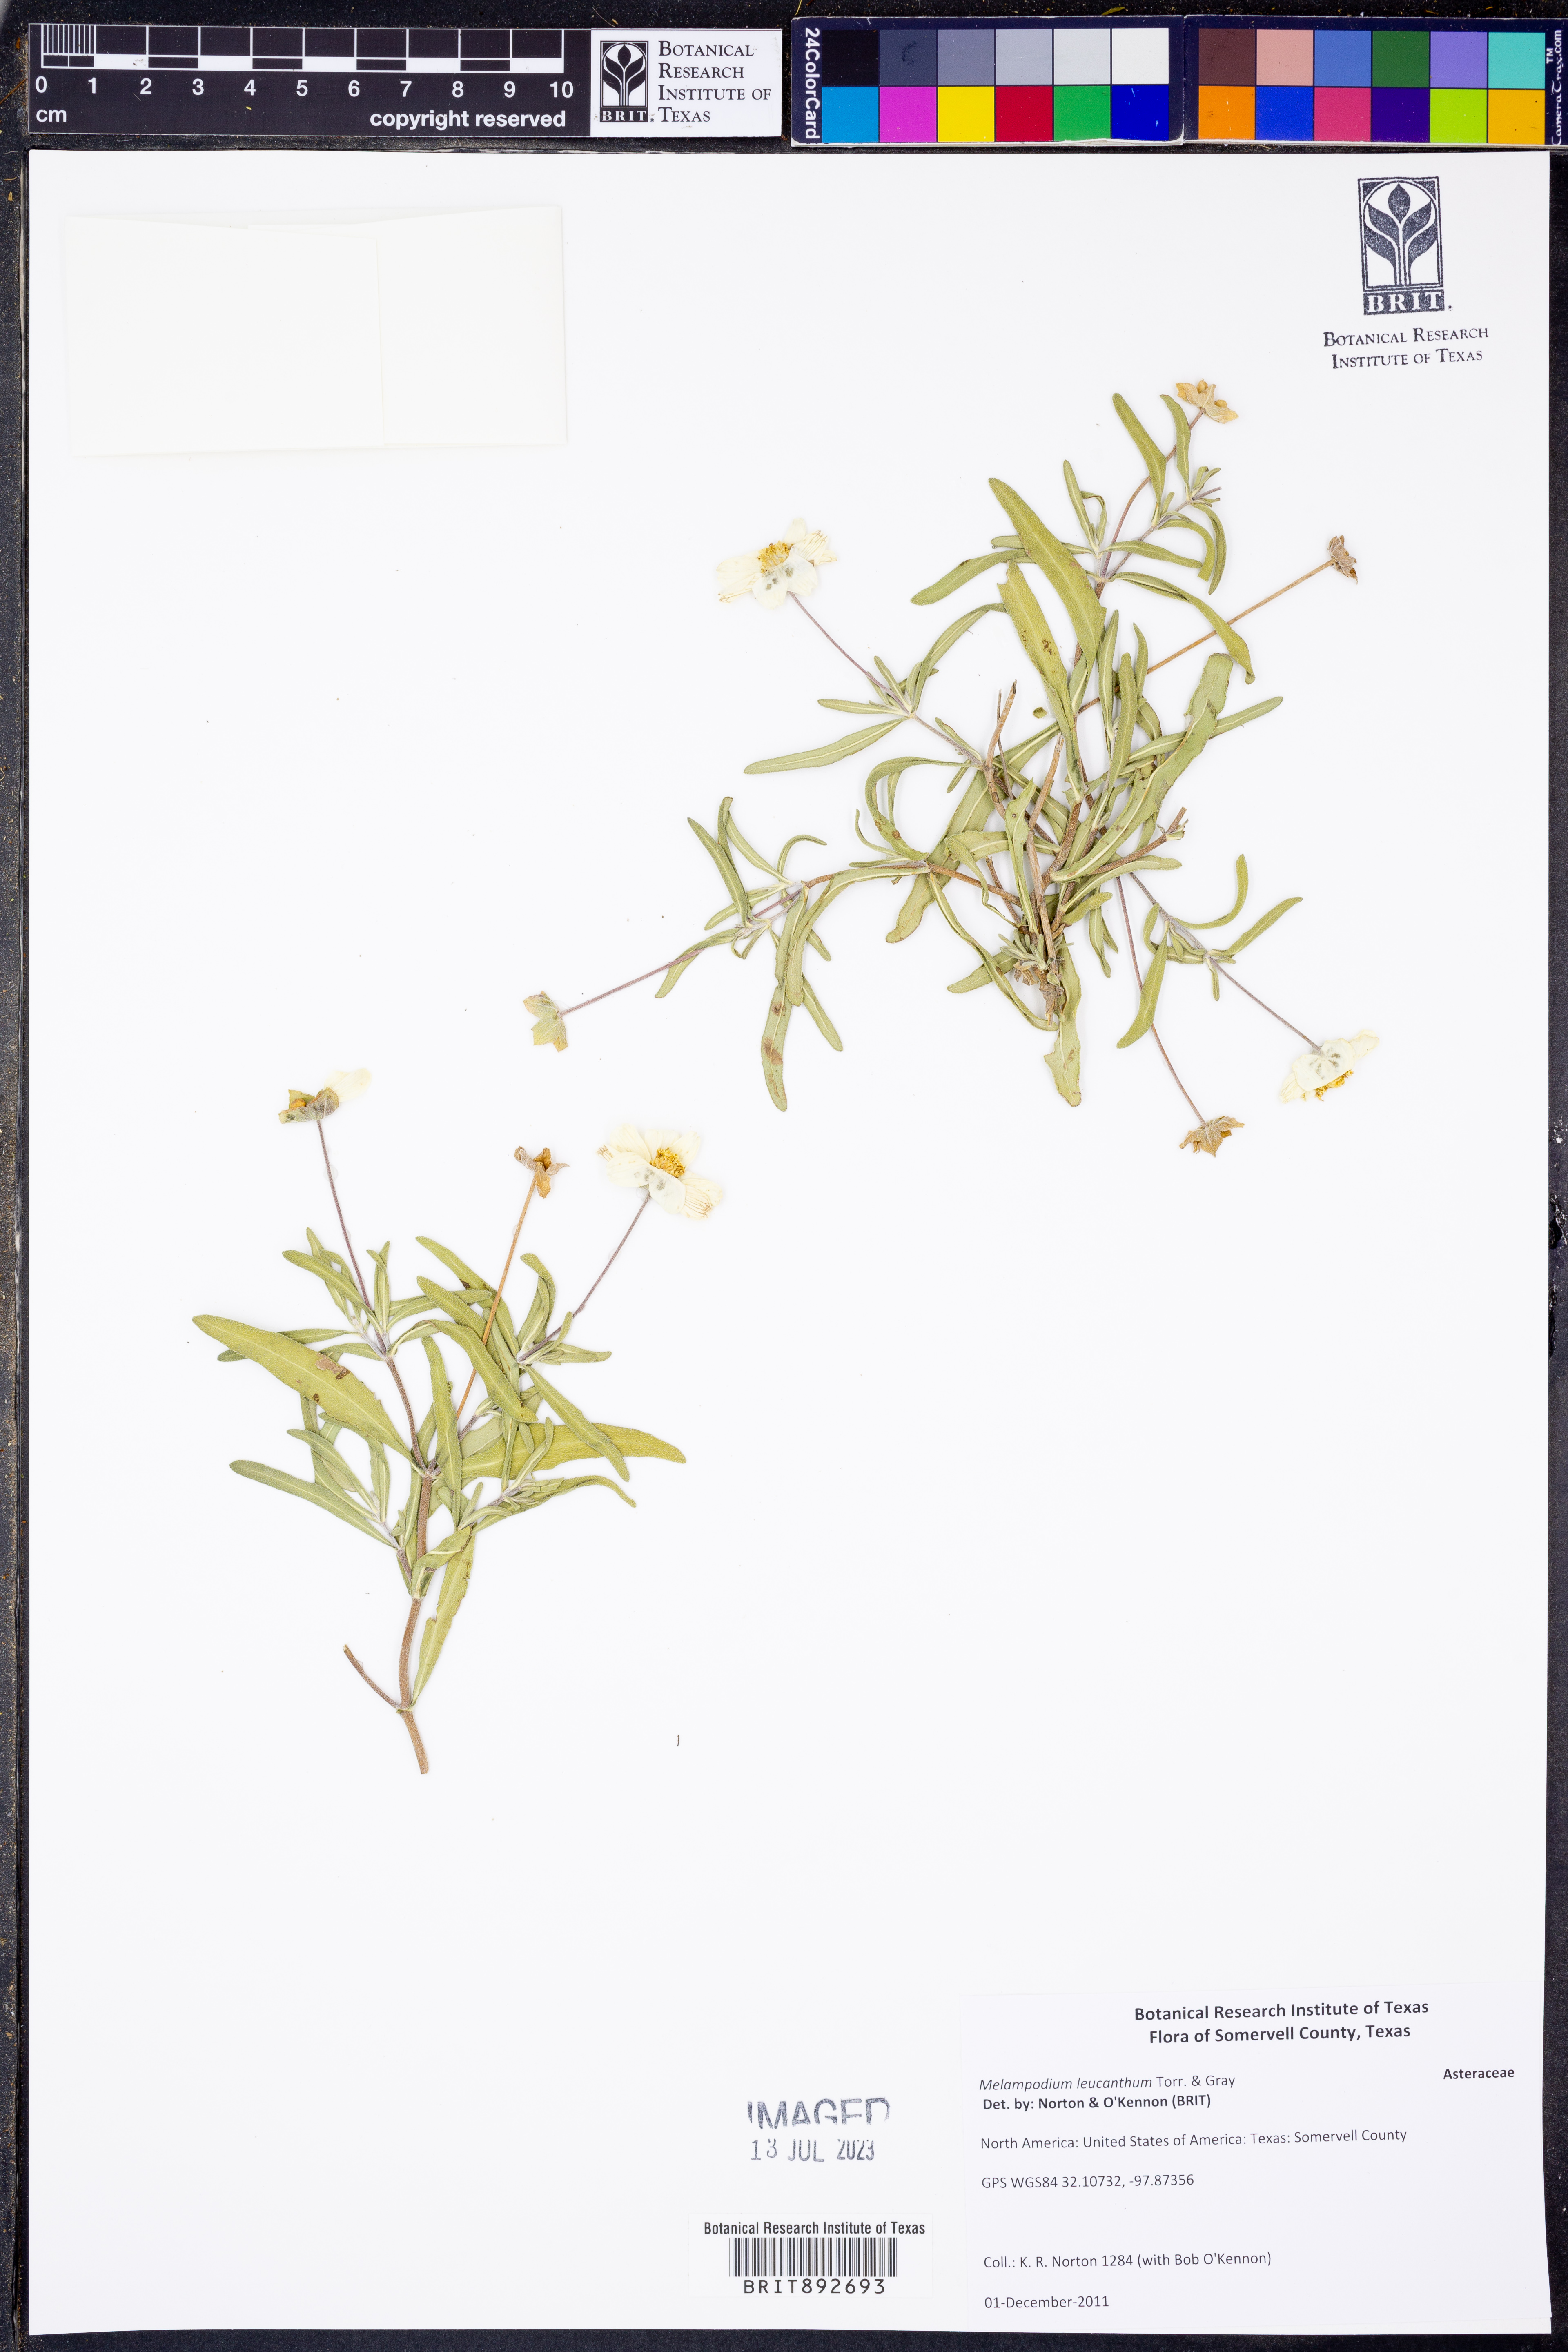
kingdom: Plantae
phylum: Tracheophyta
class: Magnoliopsida
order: Asterales
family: Asteraceae
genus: Melampodium
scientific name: Melampodium leucanthum
